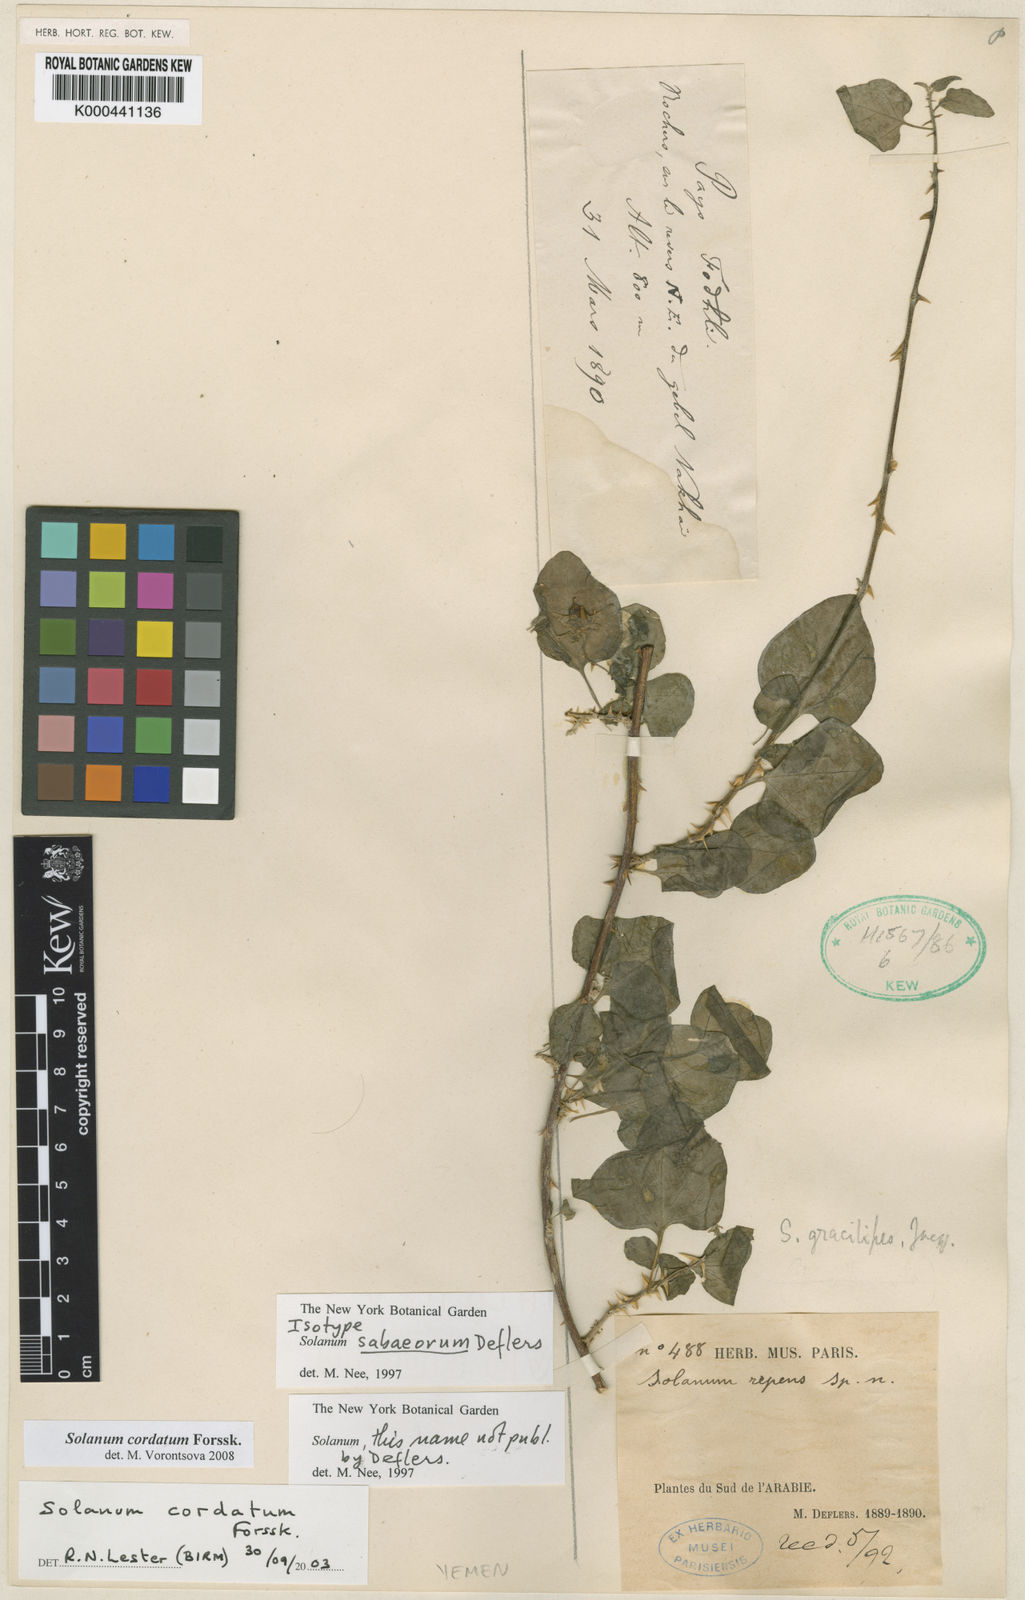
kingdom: Plantae
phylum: Tracheophyta
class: Magnoliopsida
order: Solanales
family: Solanaceae
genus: Solanum
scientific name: Solanum cordatum
